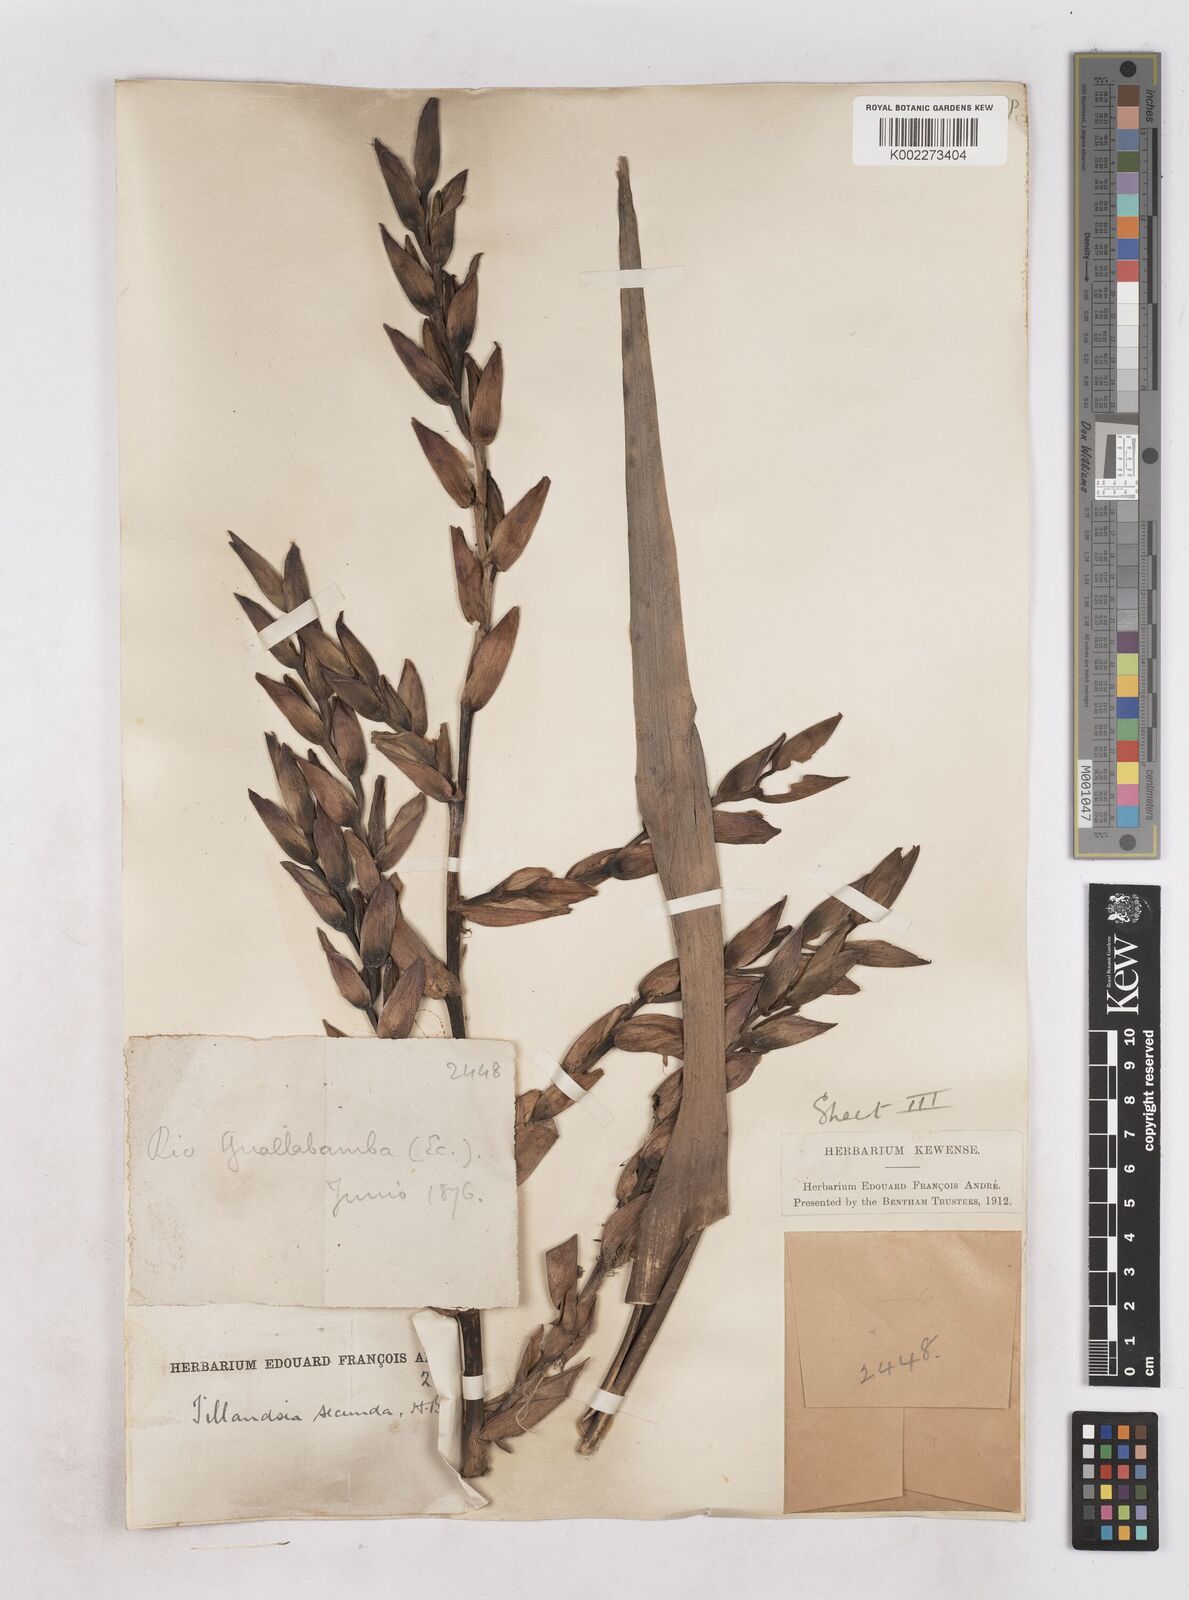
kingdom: Plantae
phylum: Tracheophyta
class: Liliopsida
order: Poales
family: Bromeliaceae
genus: Tillandsia
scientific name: Tillandsia secunda
